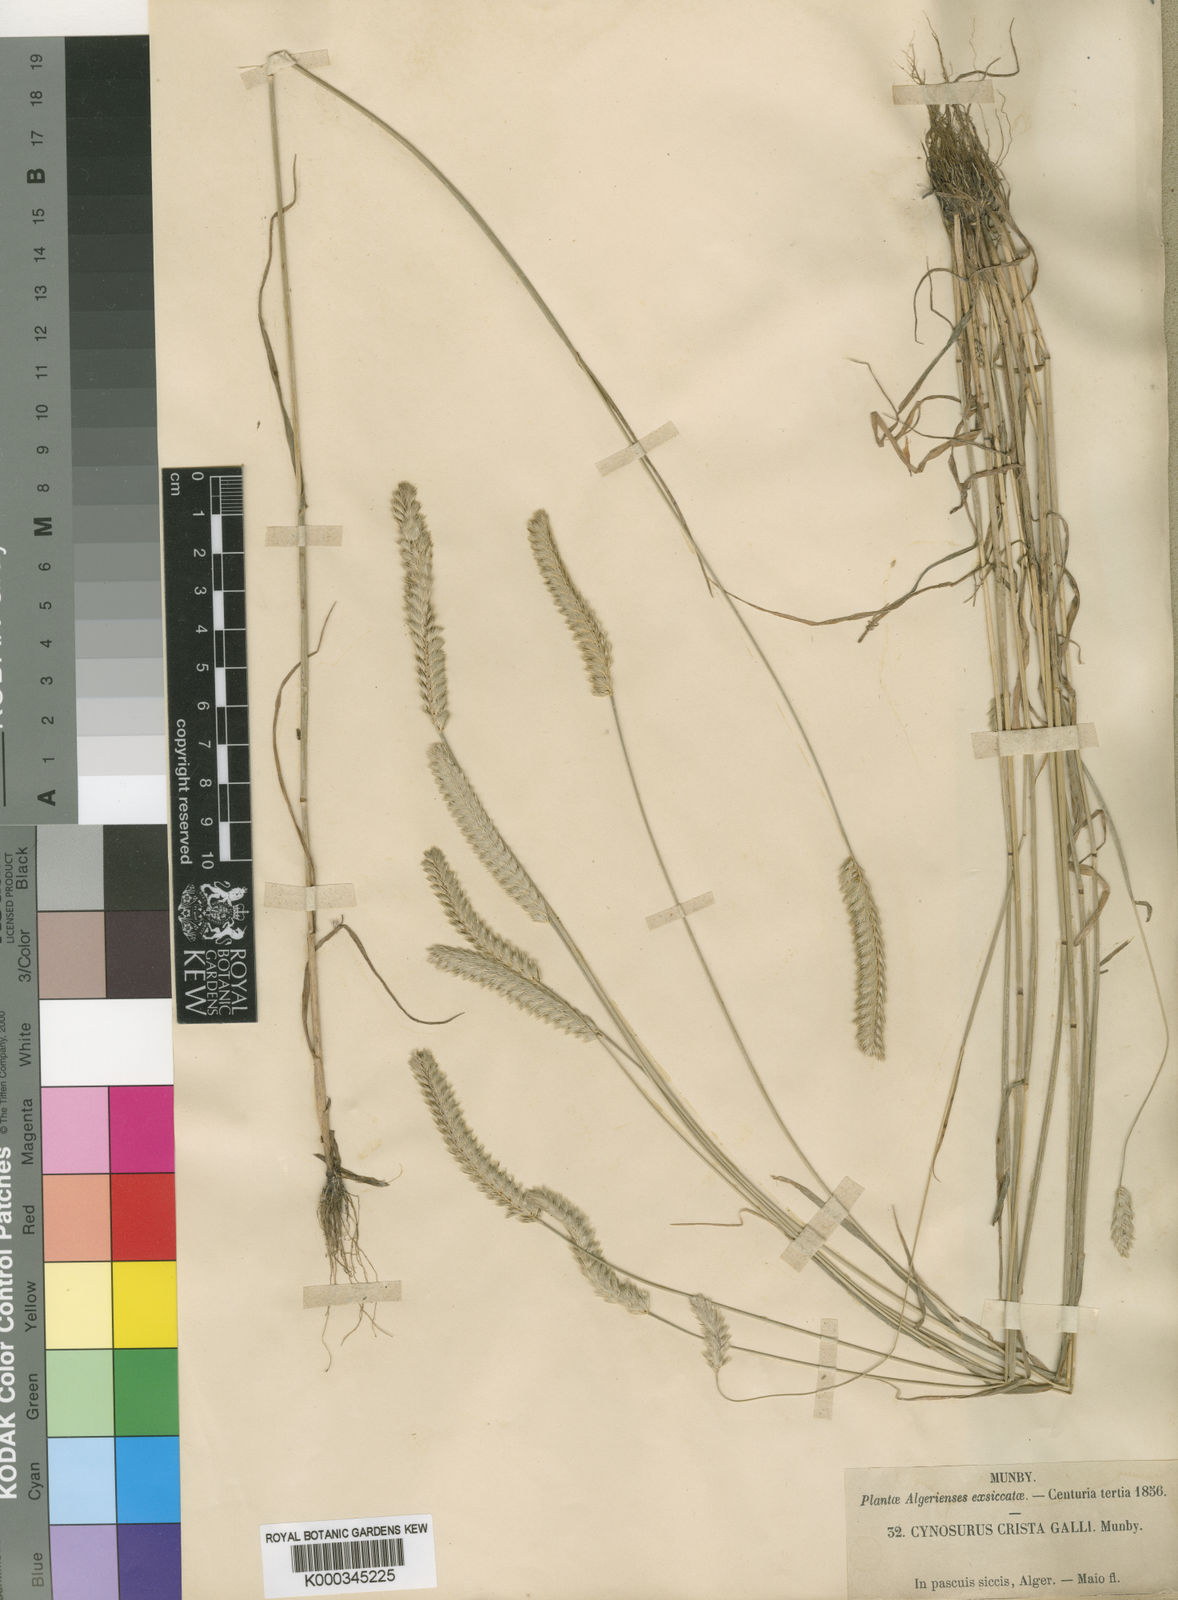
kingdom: Plantae
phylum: Tracheophyta
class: Liliopsida
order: Poales
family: Poaceae
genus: Cynosurus
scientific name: Cynosurus cristatus
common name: Crested dog's-tail
